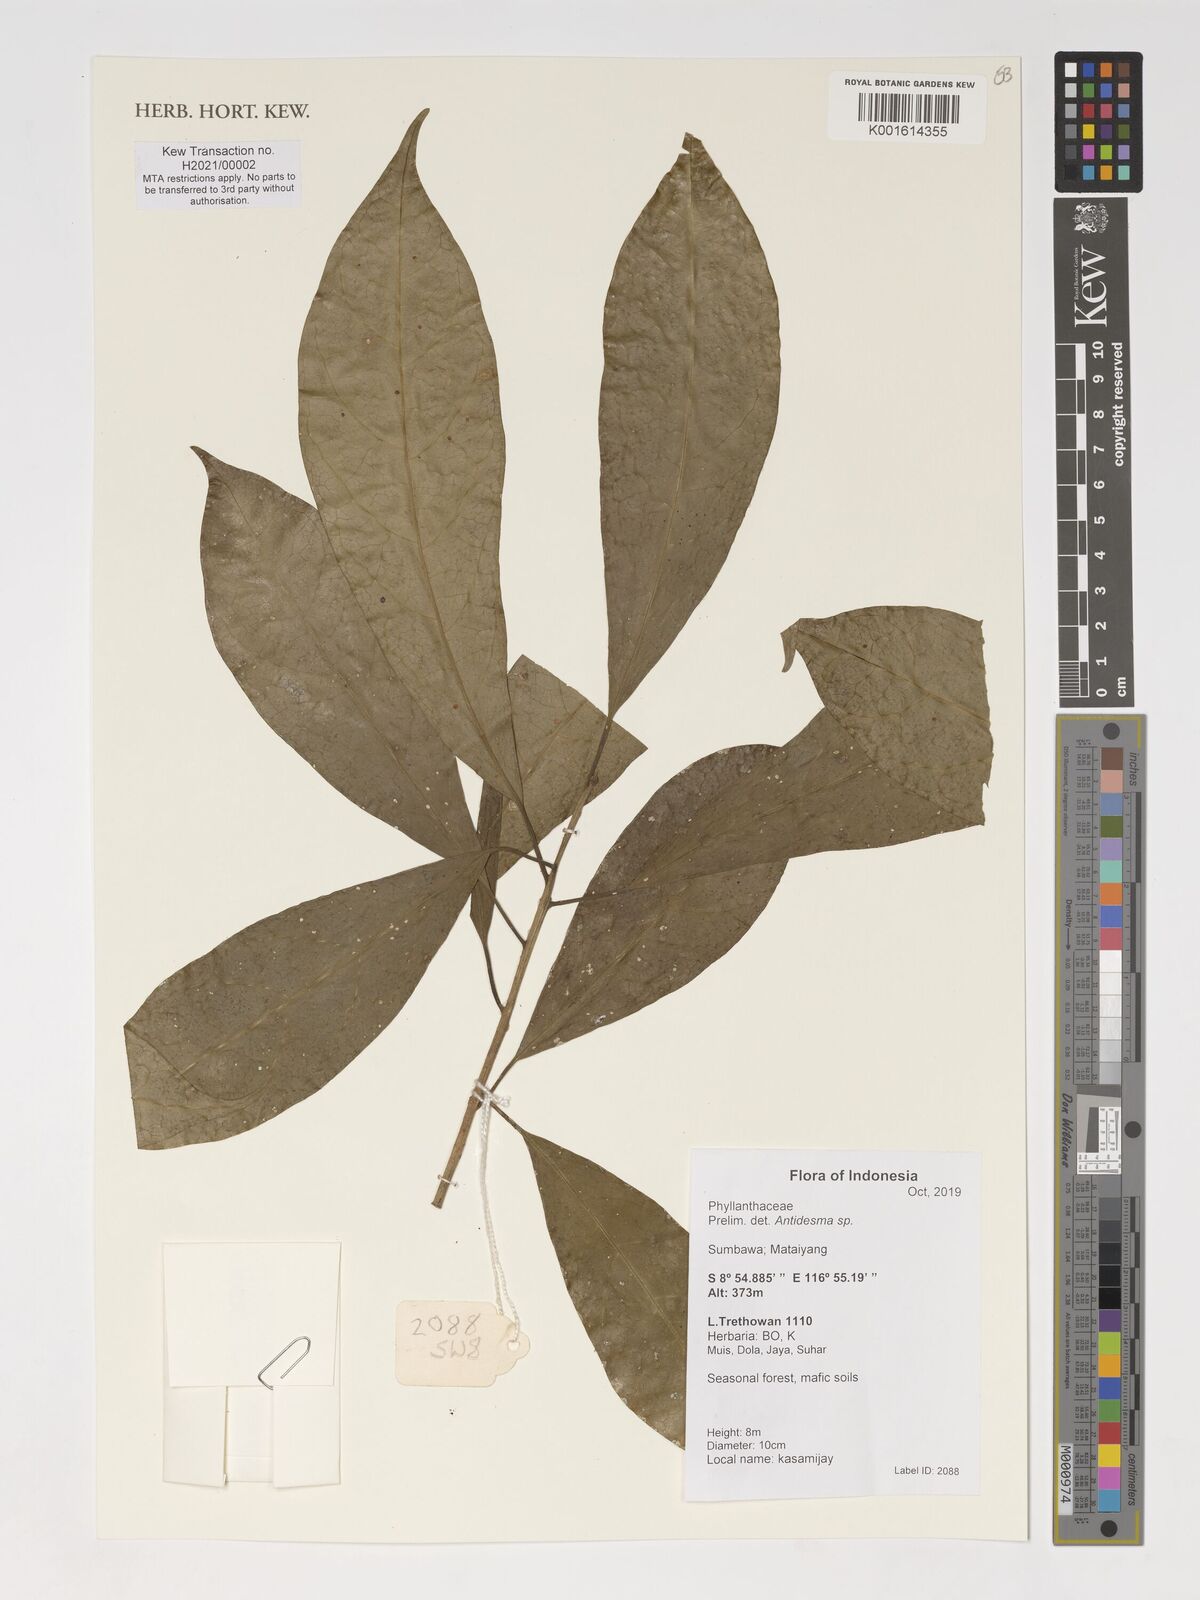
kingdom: Plantae
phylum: Tracheophyta
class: Magnoliopsida
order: Malpighiales
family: Phyllanthaceae
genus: Antidesma
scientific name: Antidesma
